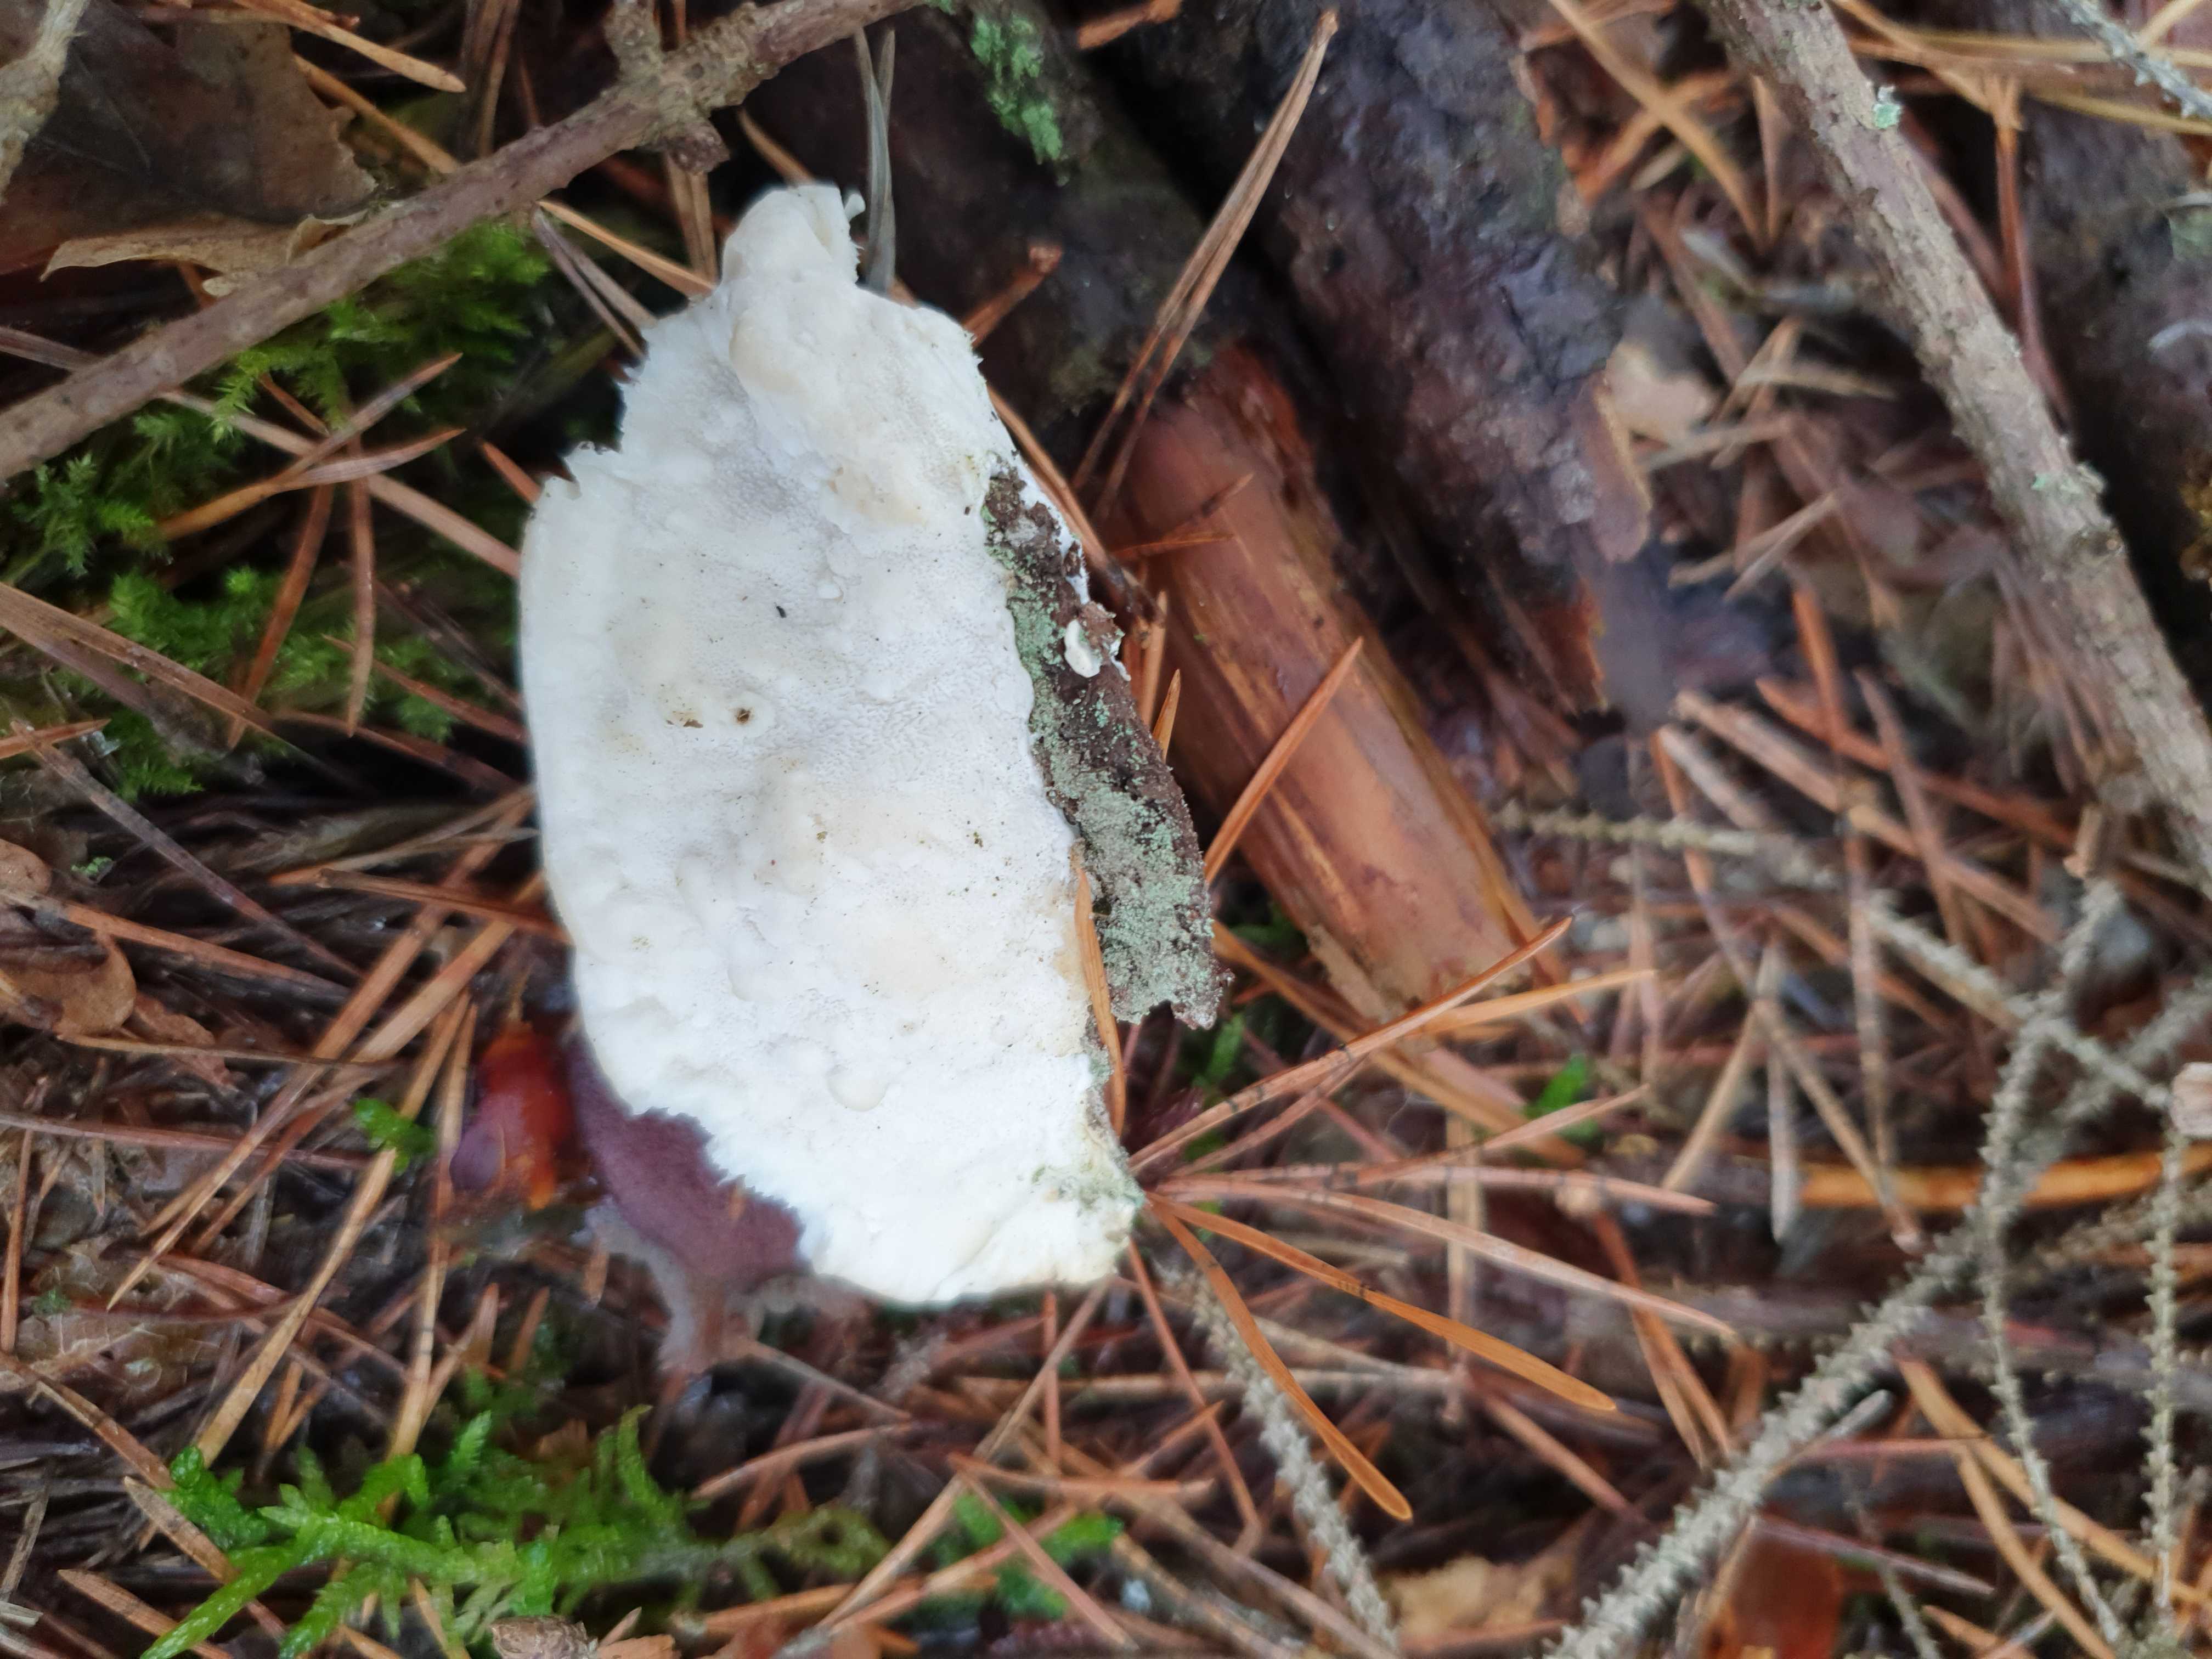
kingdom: Fungi
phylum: Basidiomycota
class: Agaricomycetes
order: Polyporales
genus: Amaropostia
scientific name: Amaropostia stiptica
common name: bitter kødporesvamp
